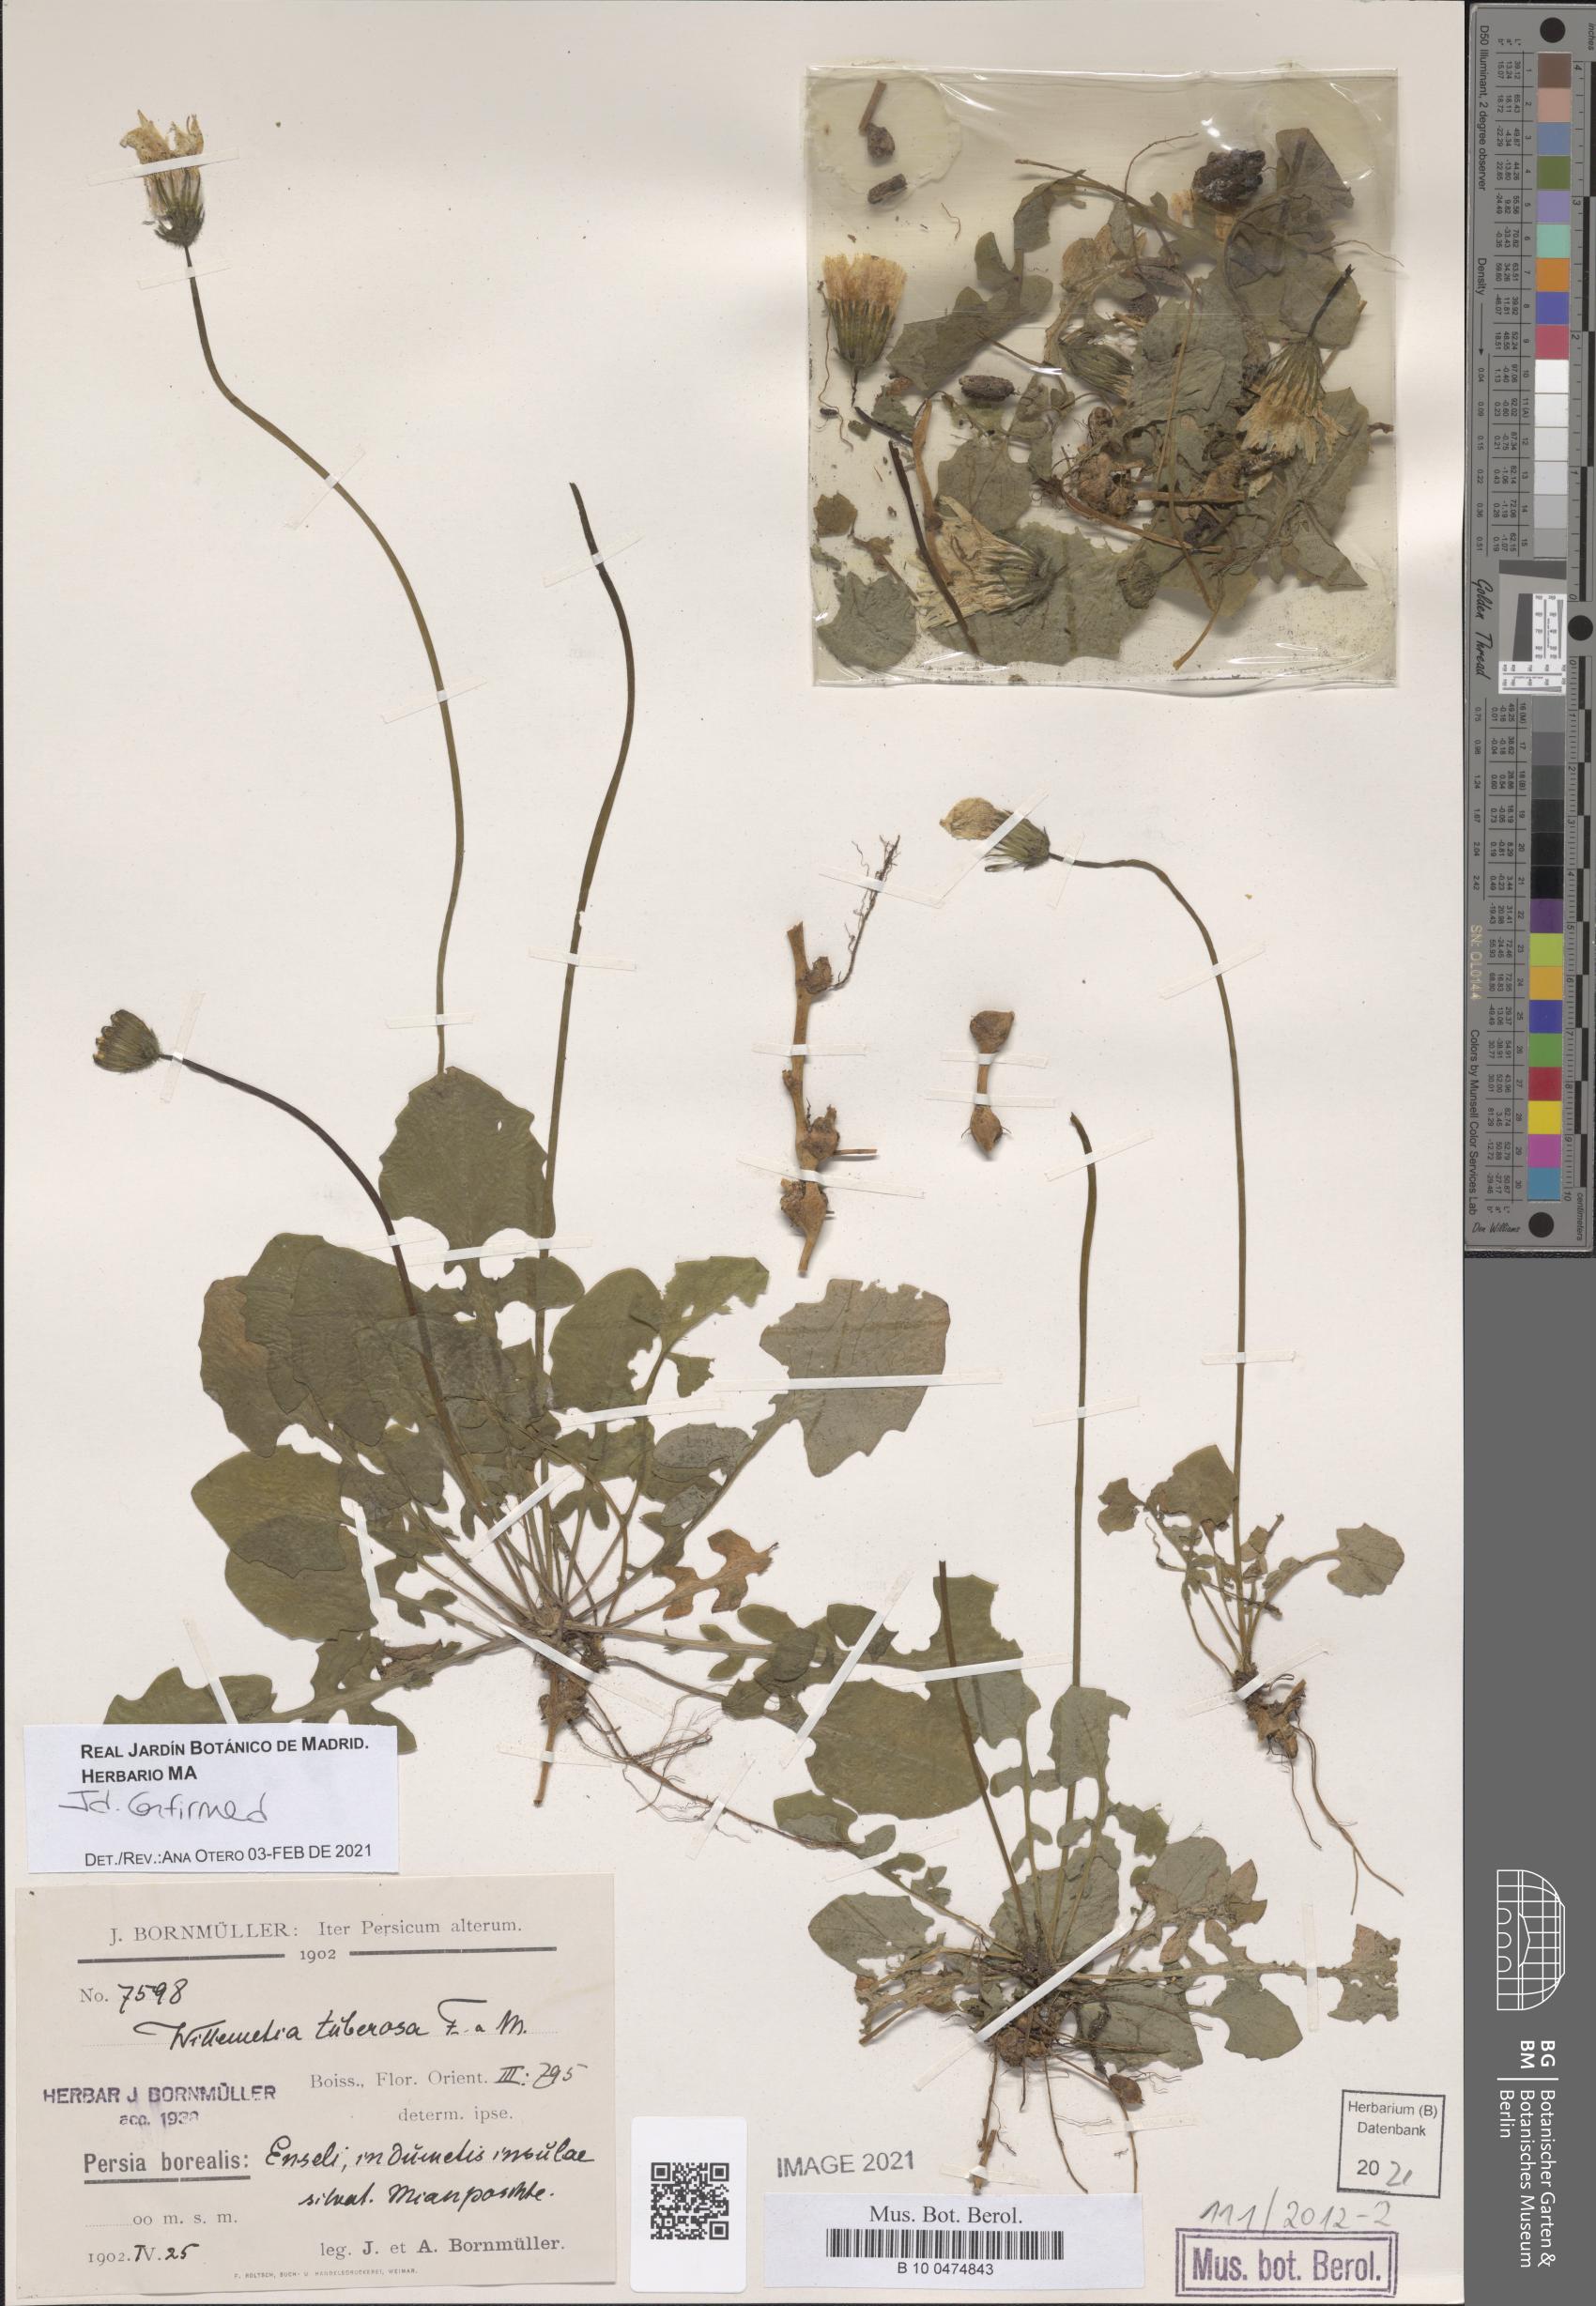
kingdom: Plantae
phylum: Tracheophyta
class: Magnoliopsida
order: Asterales
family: Asteraceae
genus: Willemetia
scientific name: Willemetia tuberosa
